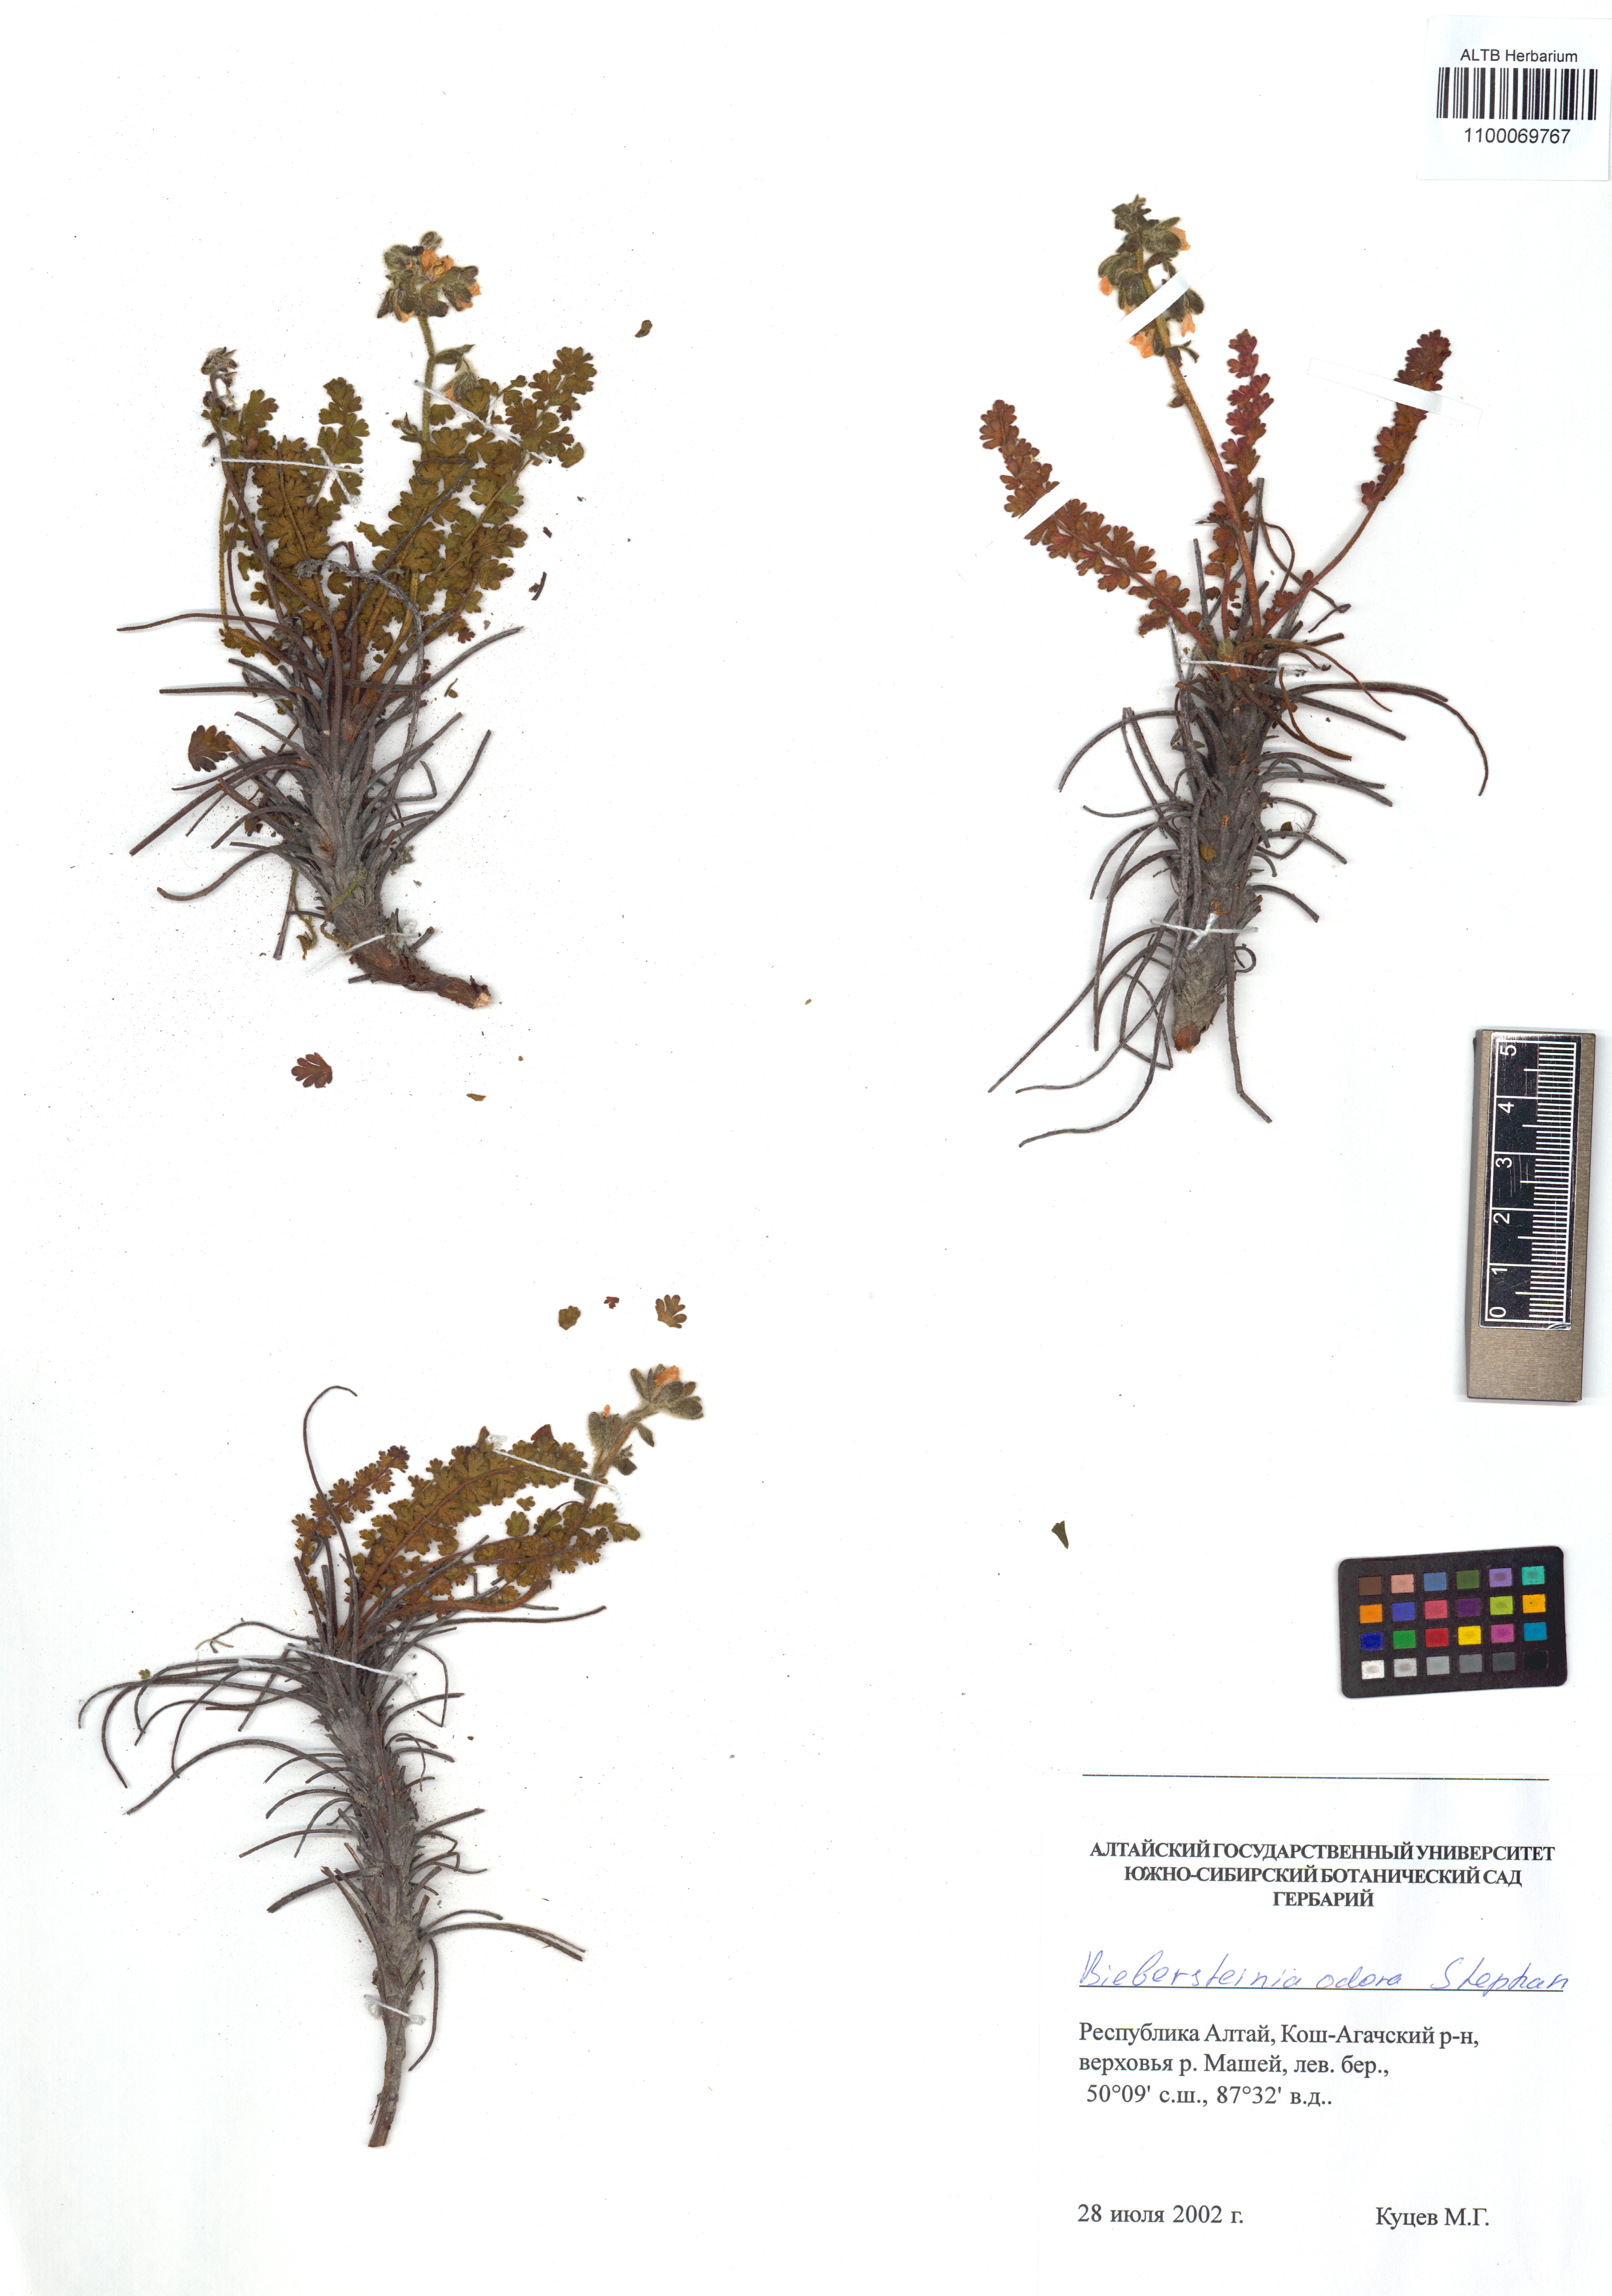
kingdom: Plantae
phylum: Tracheophyta
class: Magnoliopsida
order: Sapindales
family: Biebersteiniaceae
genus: Biebersteinia
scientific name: Biebersteinia odora
